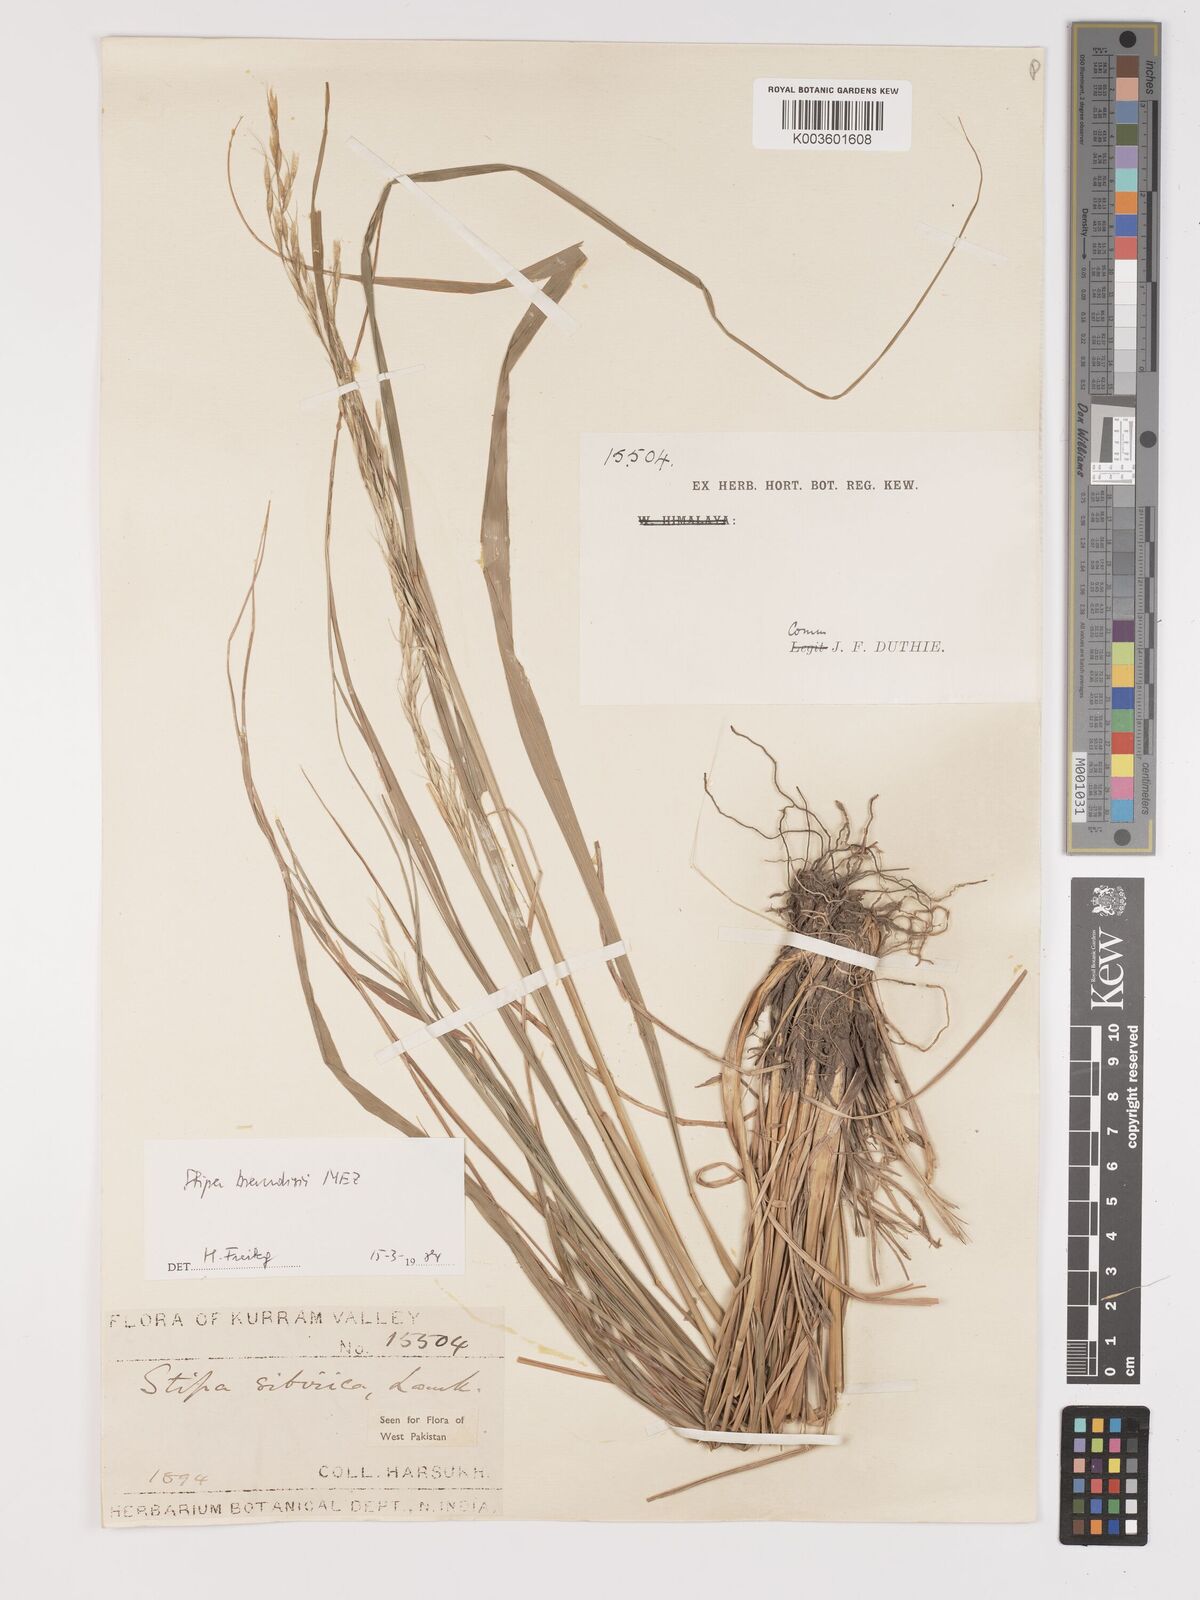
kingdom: Plantae
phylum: Tracheophyta
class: Liliopsida
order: Poales
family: Poaceae
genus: Achnatherum
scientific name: Achnatherum brandisii
